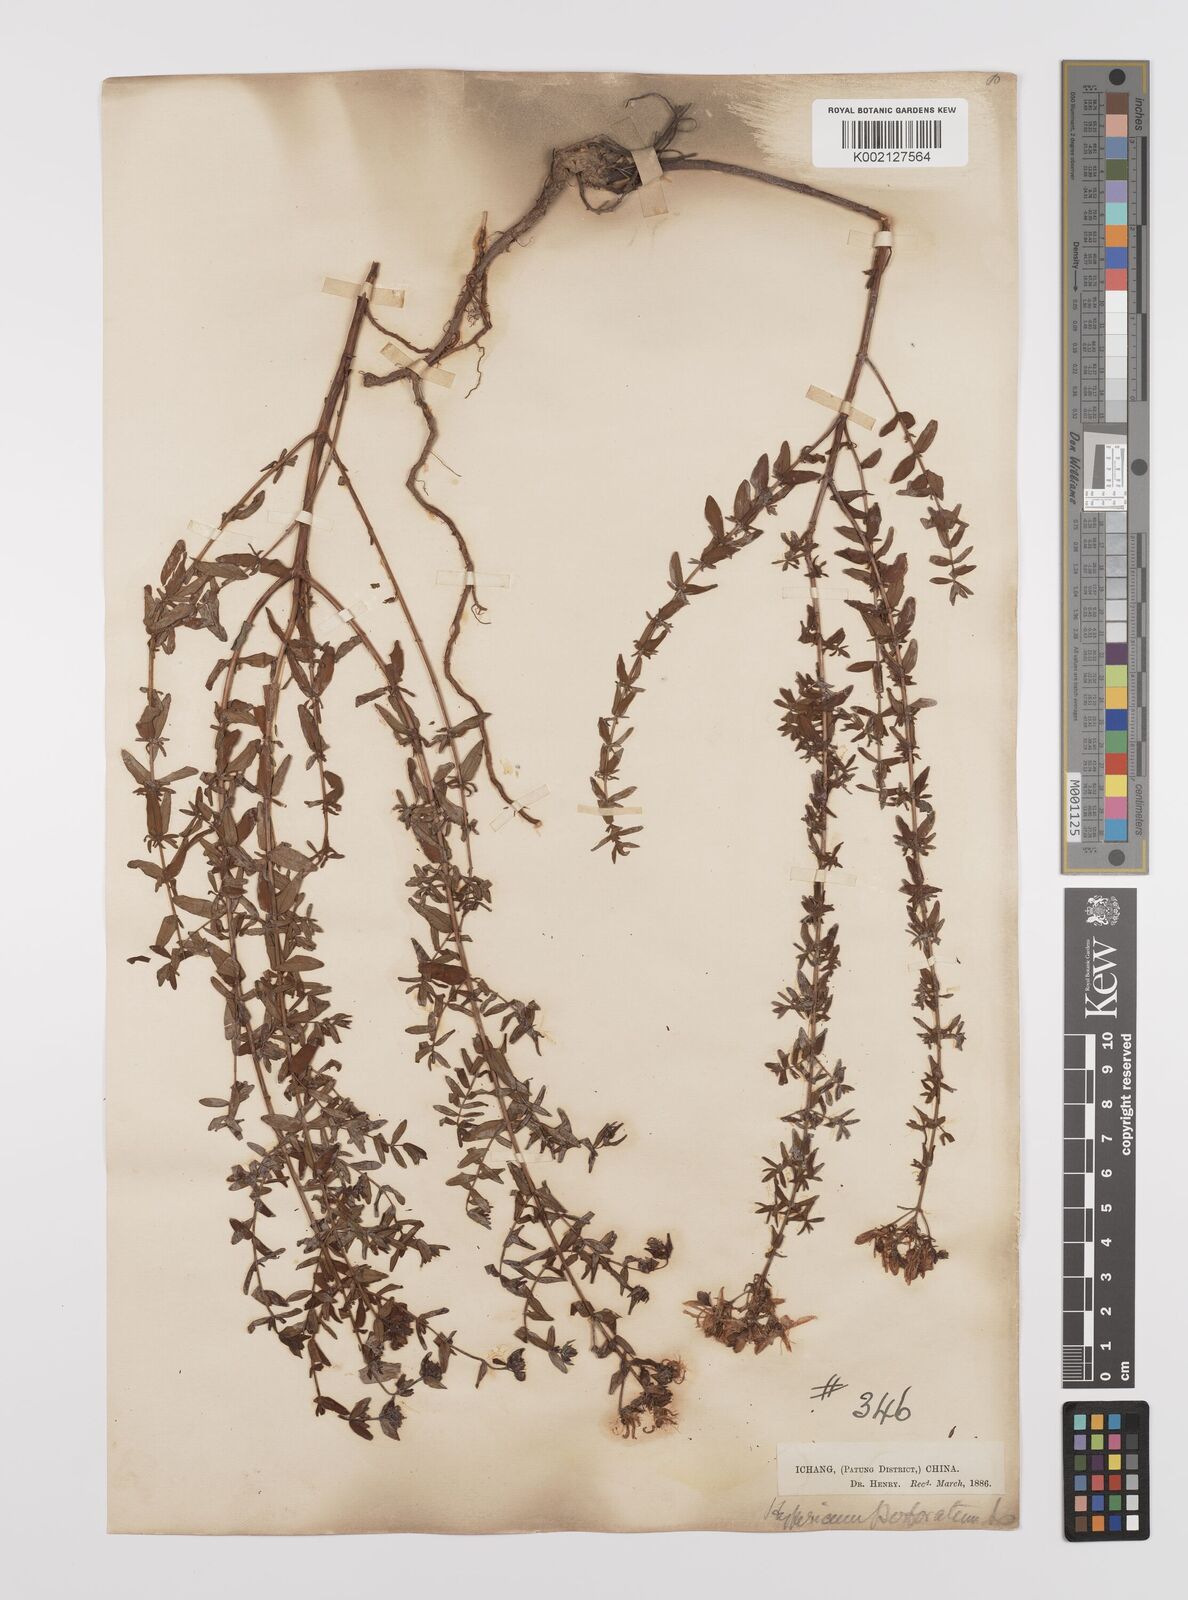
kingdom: Plantae
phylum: Tracheophyta
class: Magnoliopsida
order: Malpighiales
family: Hypericaceae
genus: Hypericum
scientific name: Hypericum perforatum
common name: Common st. johnswort
